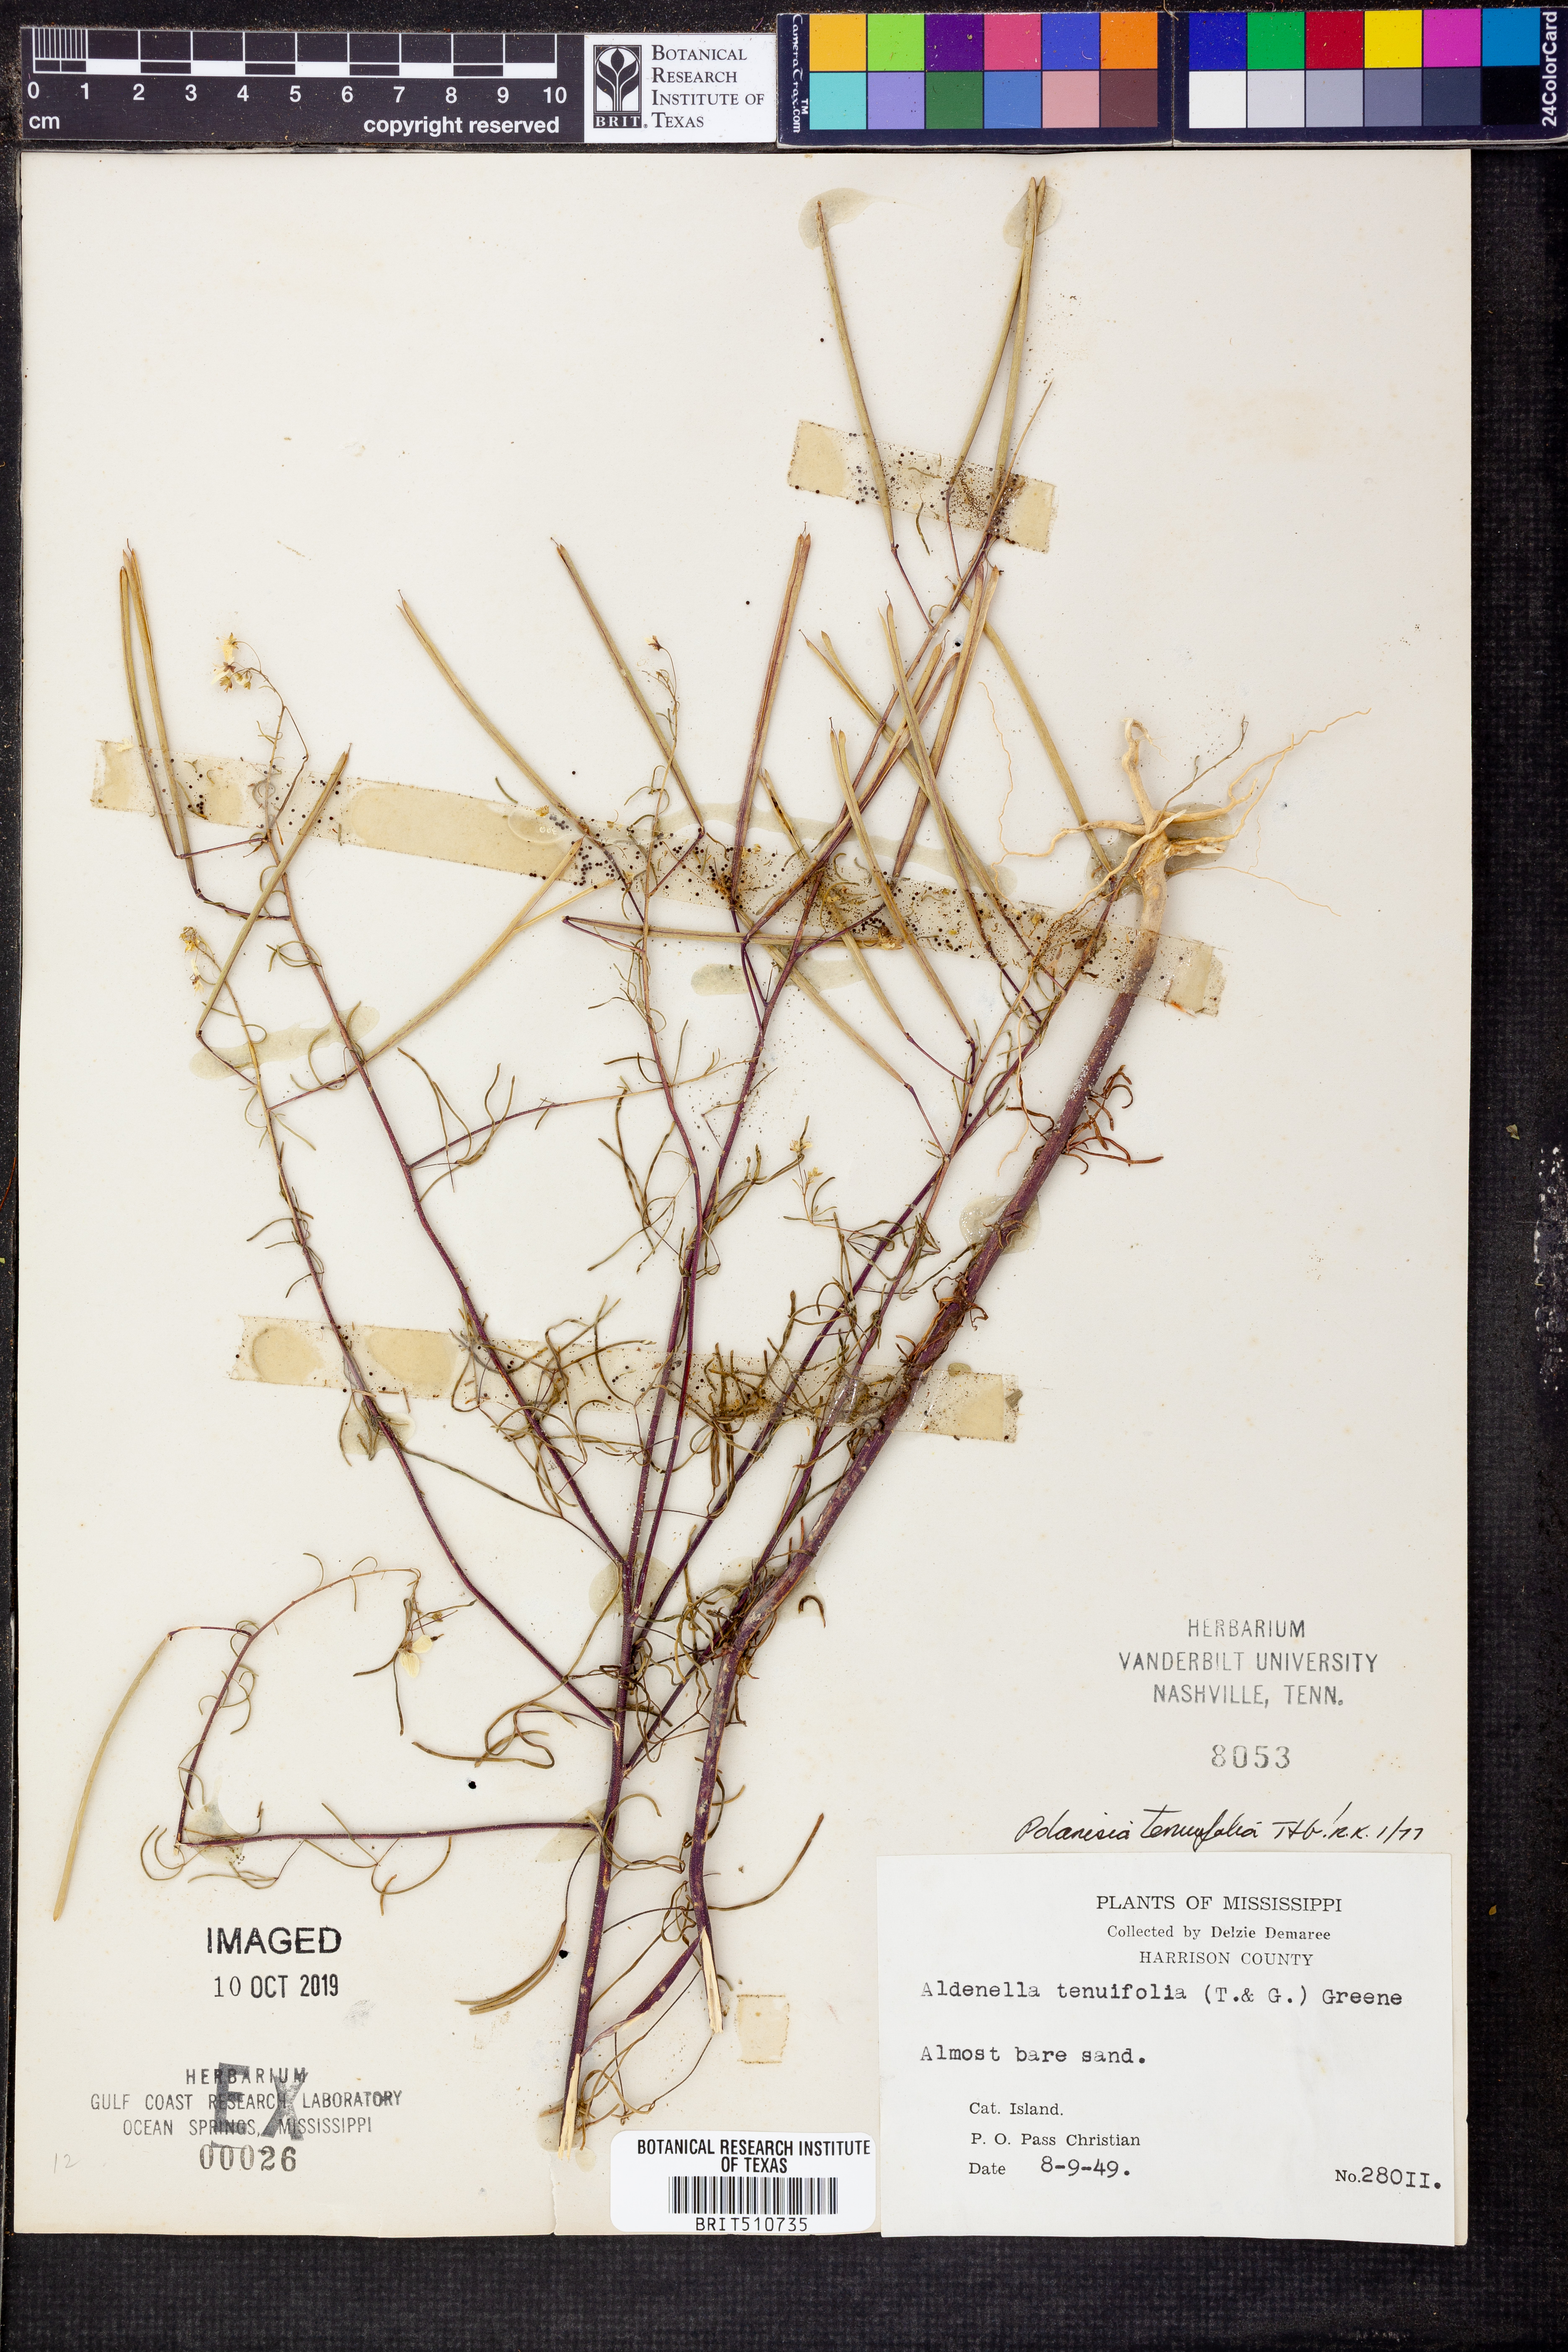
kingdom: Plantae
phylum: Tracheophyta
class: Magnoliopsida
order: Brassicales
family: Cleomaceae
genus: Polanisia
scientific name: Polanisia tenuifolia
